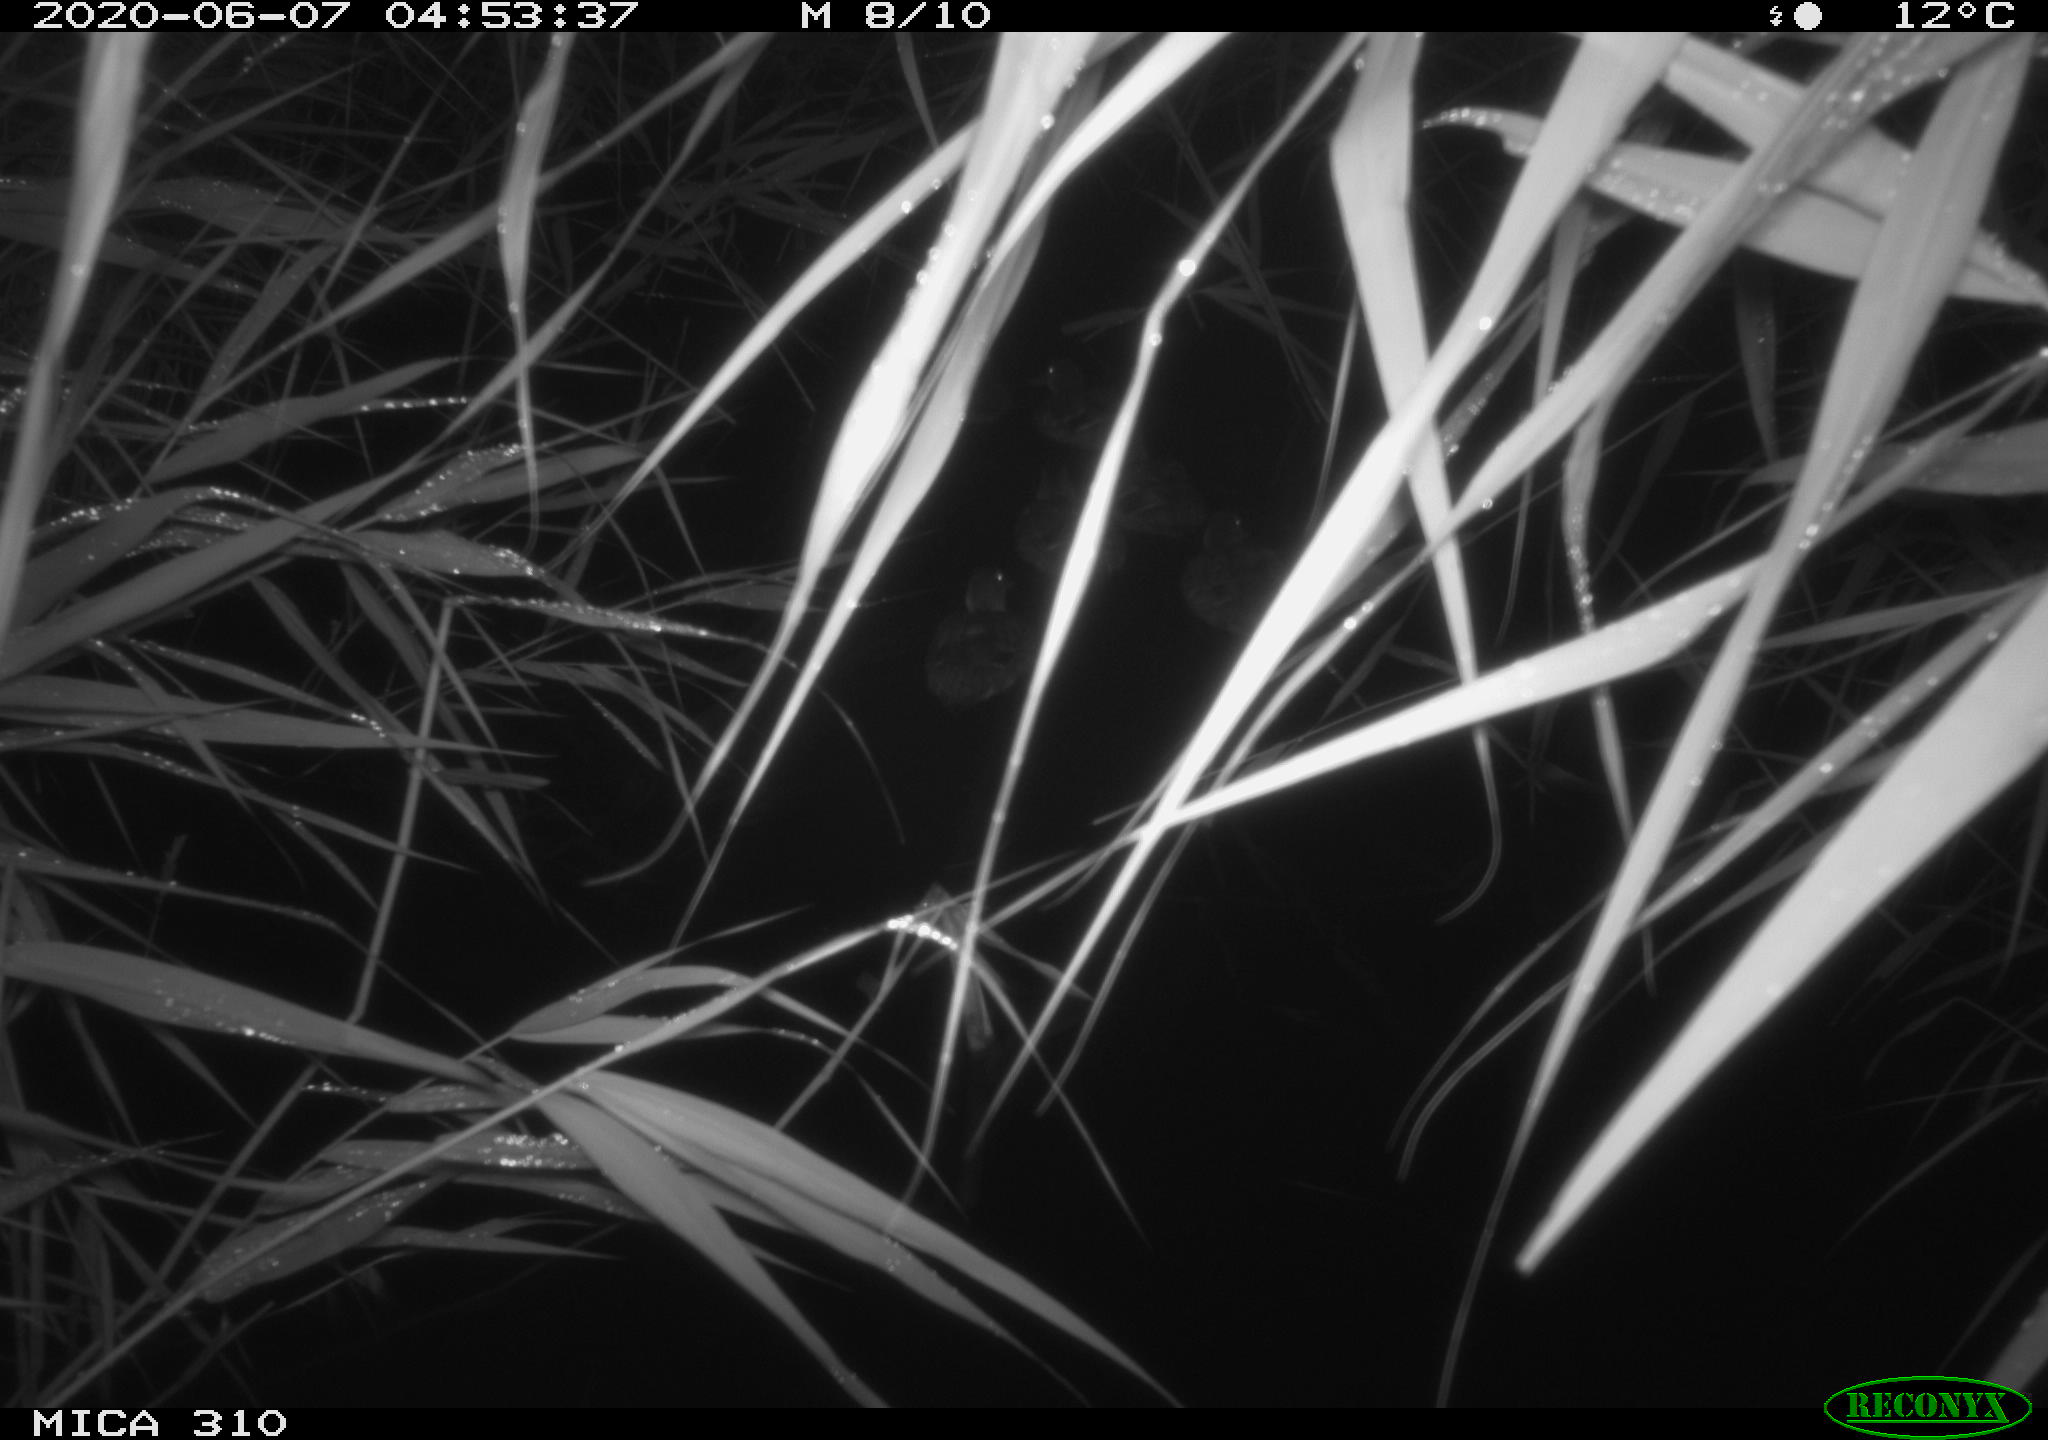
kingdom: Animalia
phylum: Chordata
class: Aves
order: Anseriformes
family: Anatidae
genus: Anas
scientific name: Anas platyrhynchos
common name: Mallard
